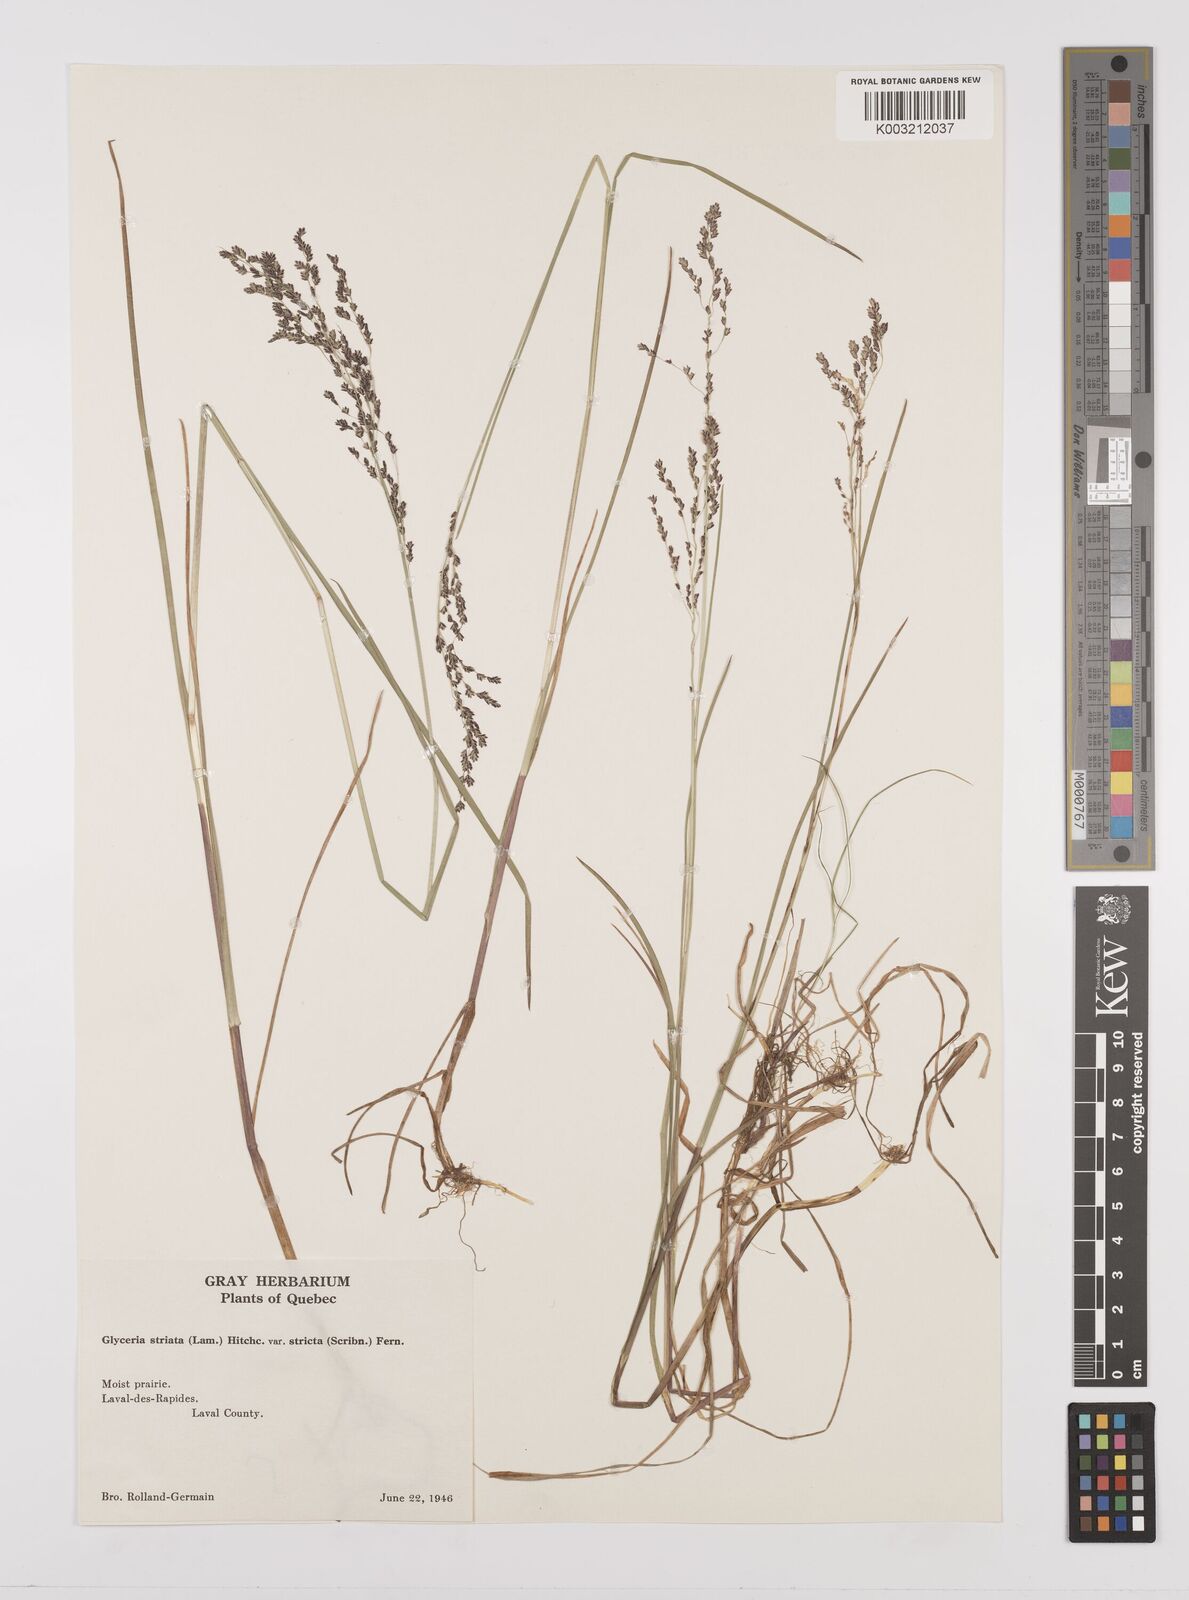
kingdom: Plantae
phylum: Tracheophyta
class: Liliopsida
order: Poales
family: Poaceae
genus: Glyceria
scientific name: Glyceria striata
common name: Fowl manna grass
